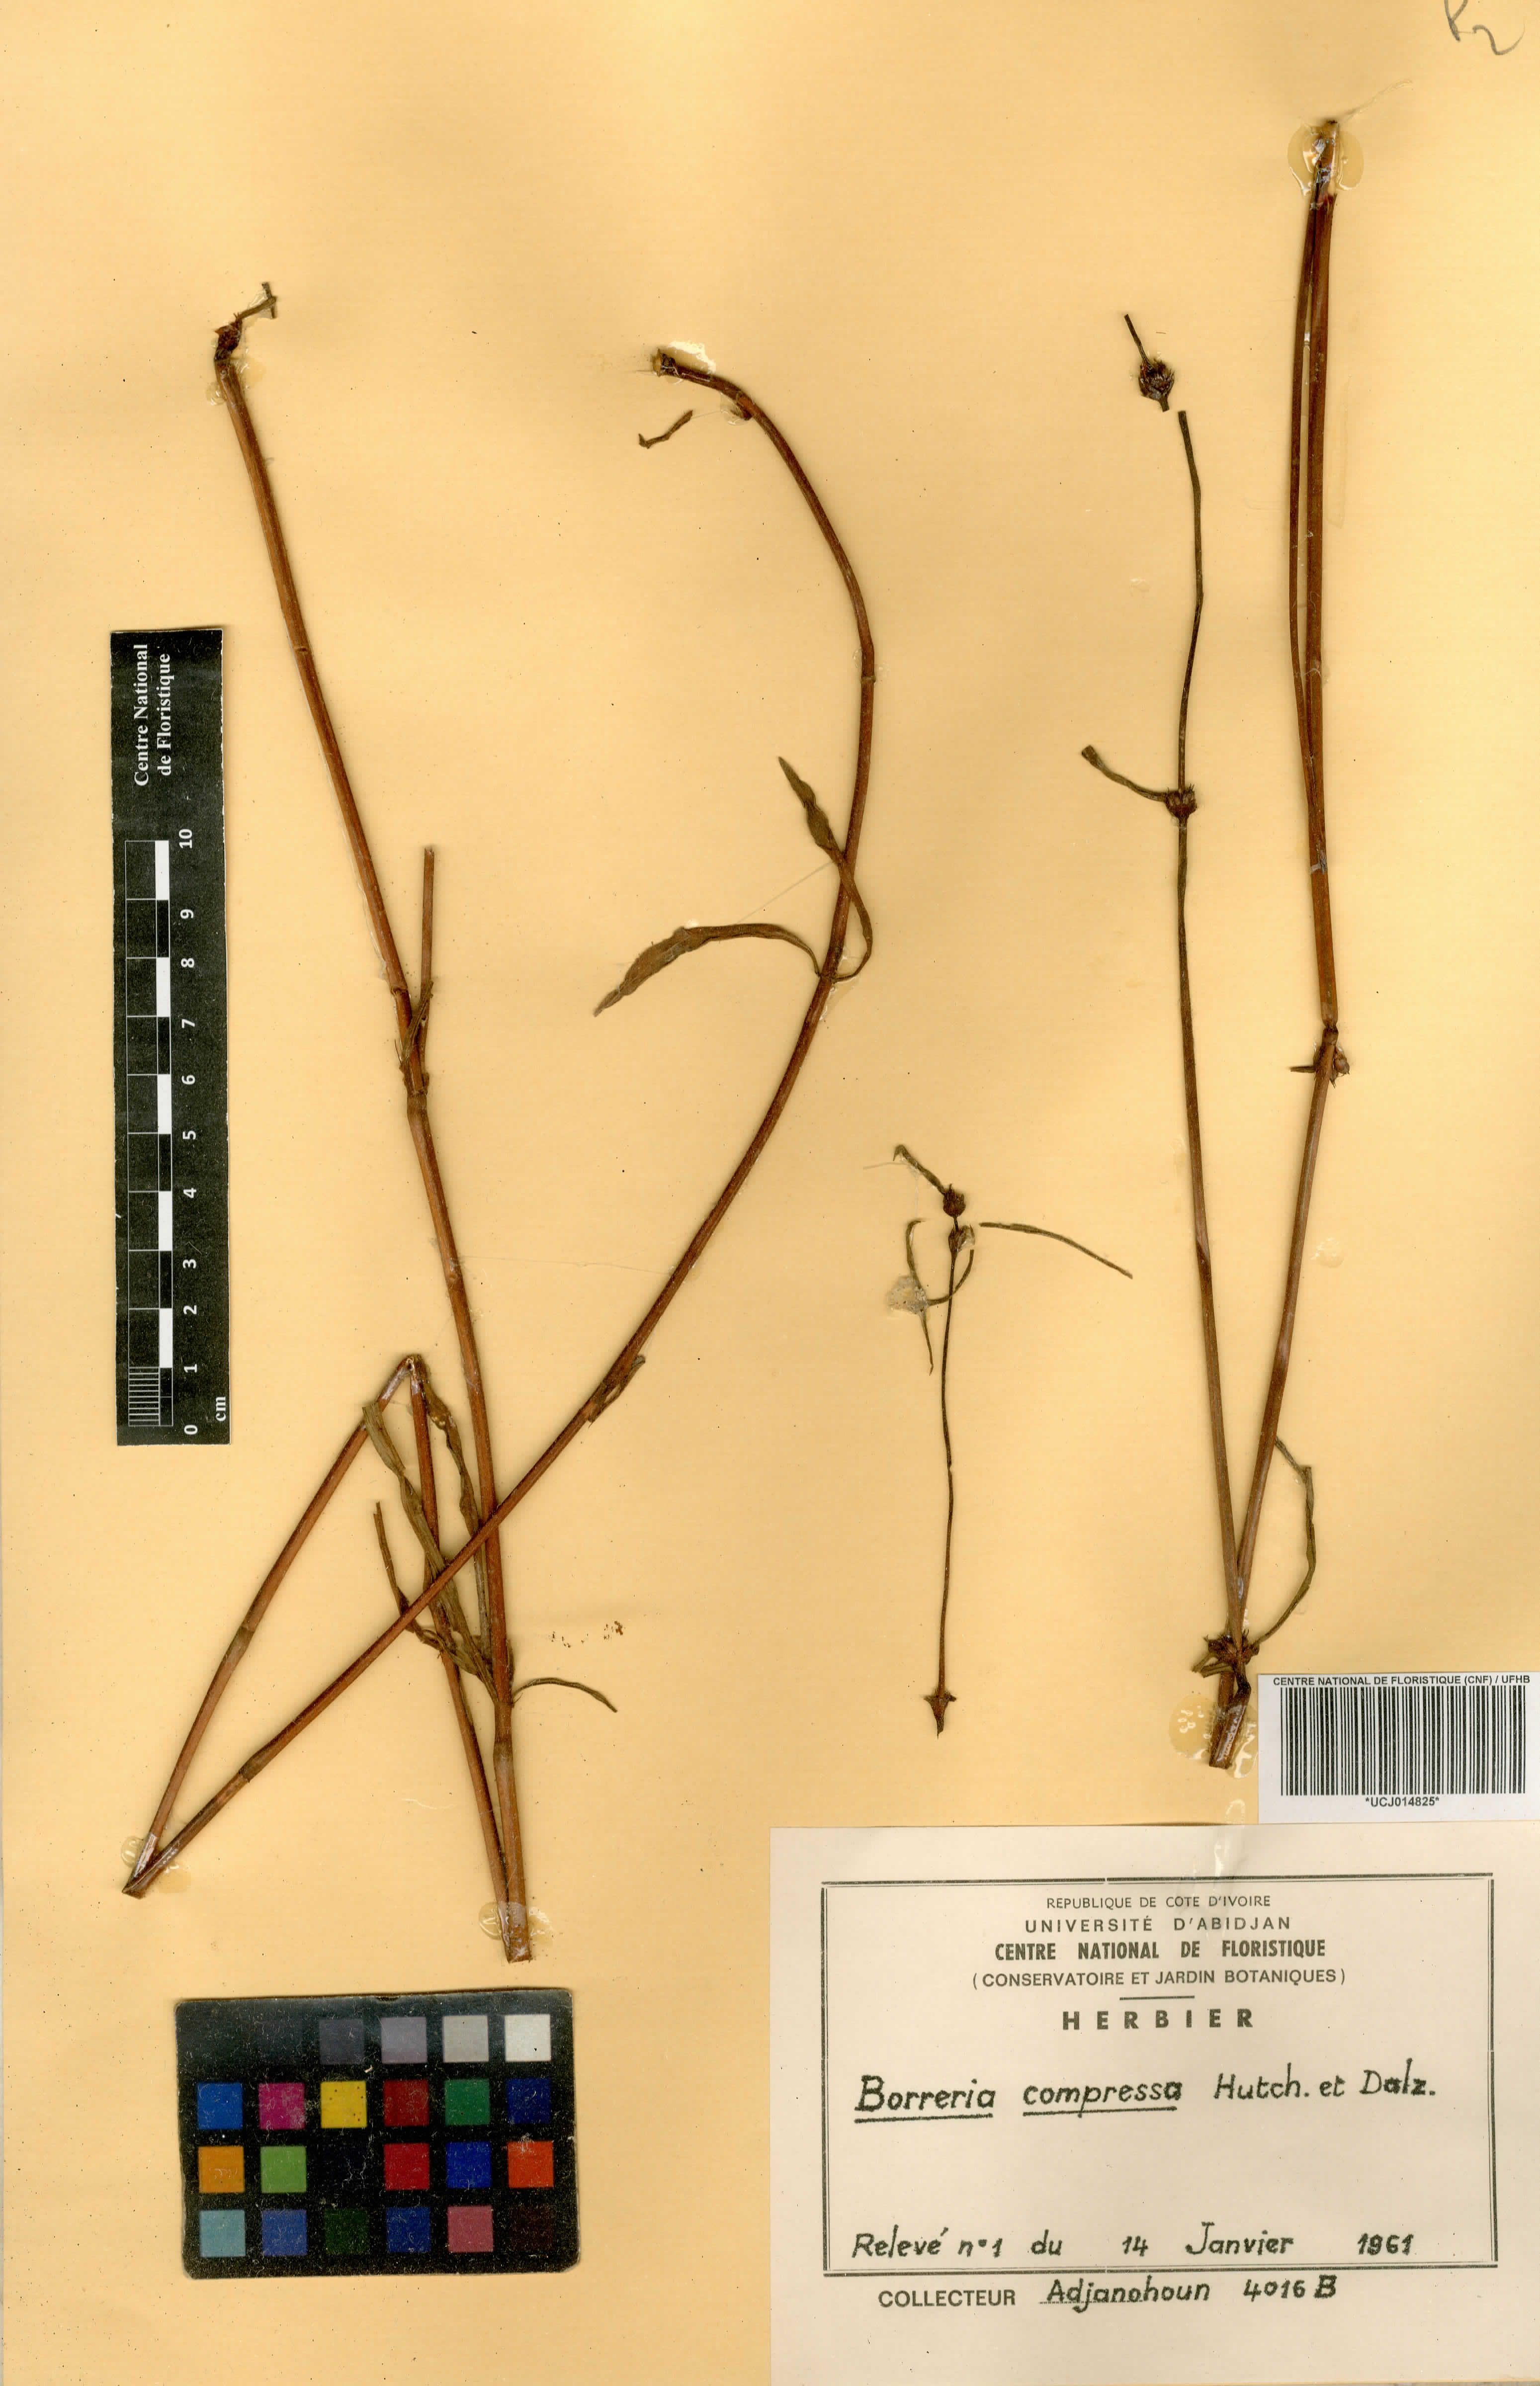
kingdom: Plantae
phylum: Tracheophyta
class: Magnoliopsida
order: Gentianales
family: Rubiaceae
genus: Spermacoce
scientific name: Spermacoce hepperiana
